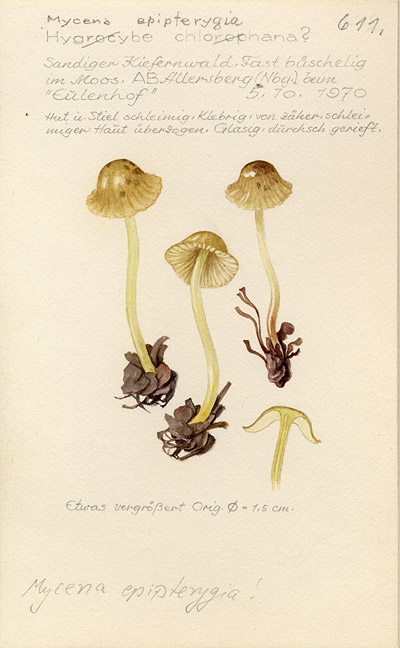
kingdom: Fungi
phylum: Basidiomycota
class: Agaricomycetes
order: Agaricales
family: Mycenaceae
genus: Mycena
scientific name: Mycena epipterygia
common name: Yellowleg bonnet
